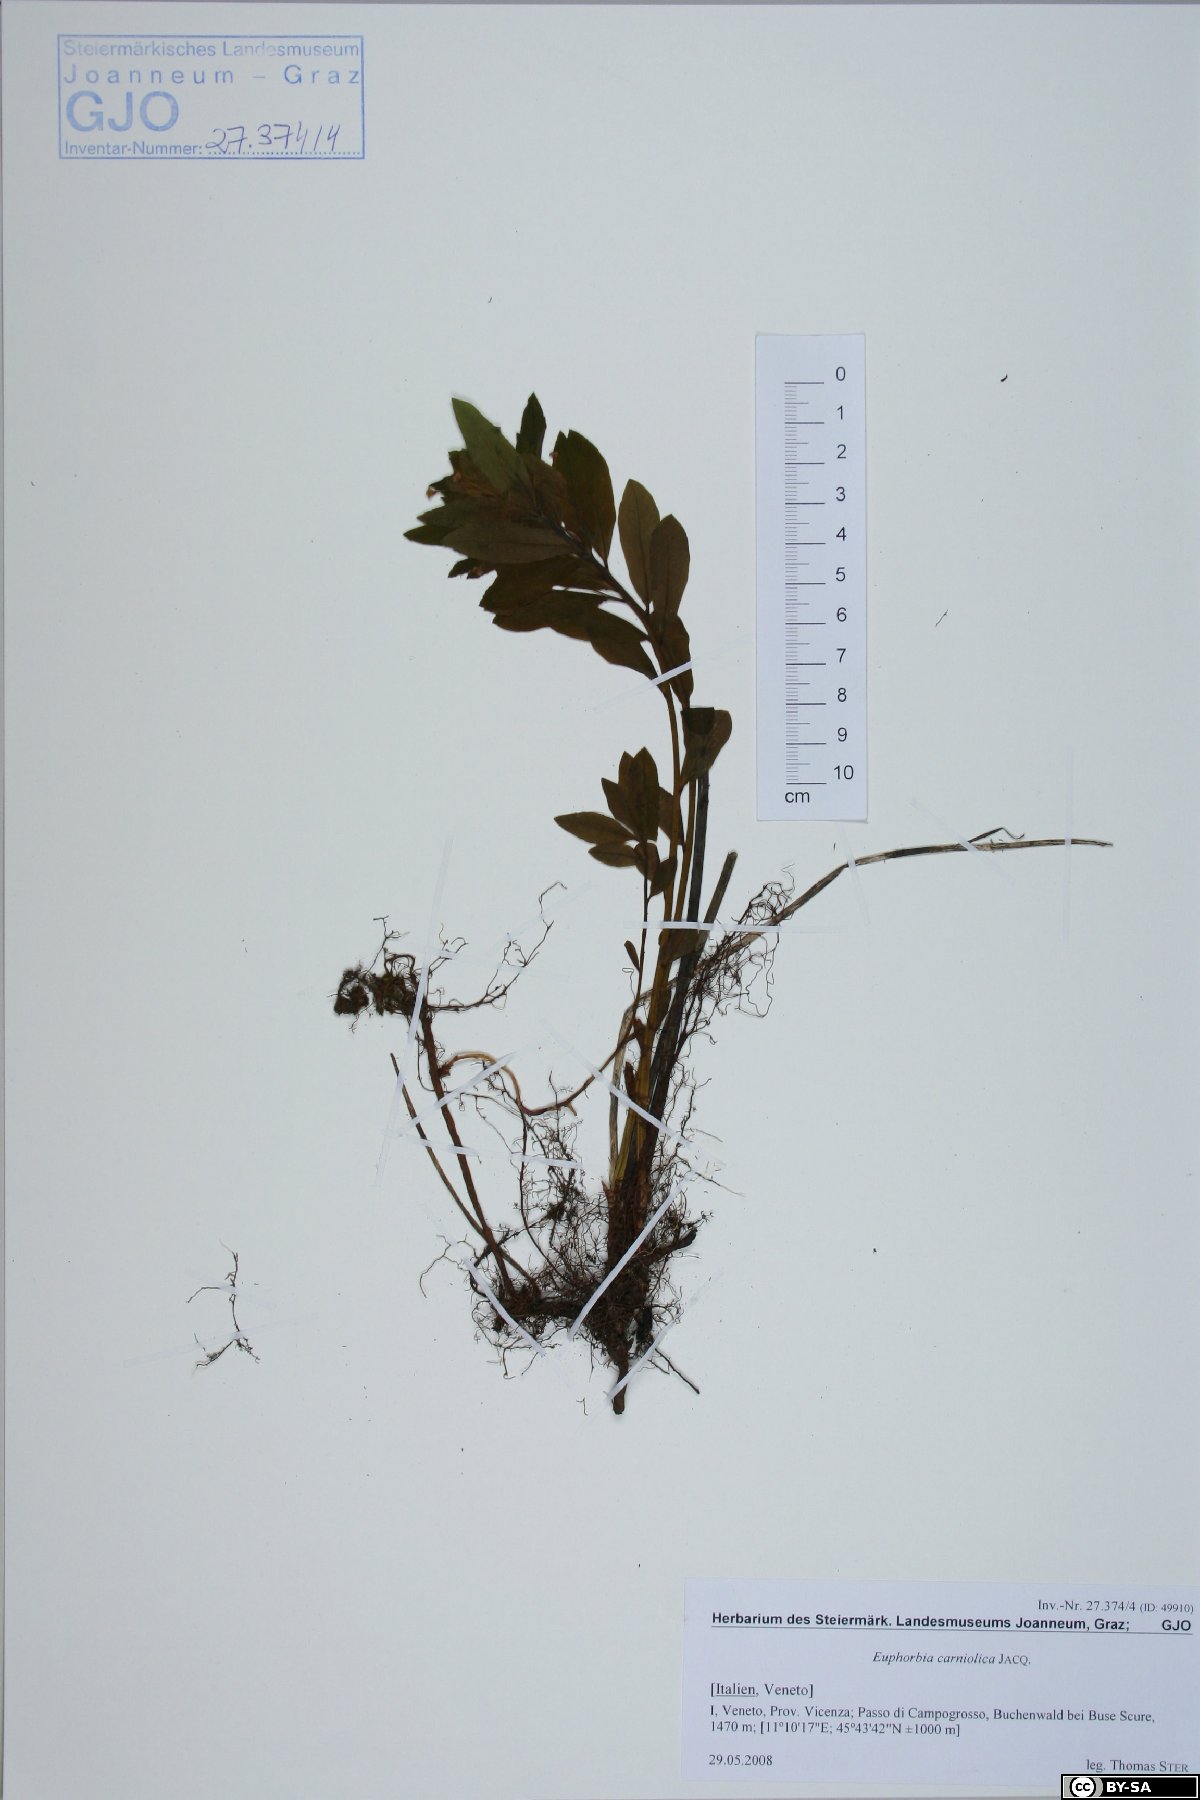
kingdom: Plantae
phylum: Tracheophyta
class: Magnoliopsida
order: Malpighiales
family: Euphorbiaceae
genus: Euphorbia
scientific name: Euphorbia carniolica
